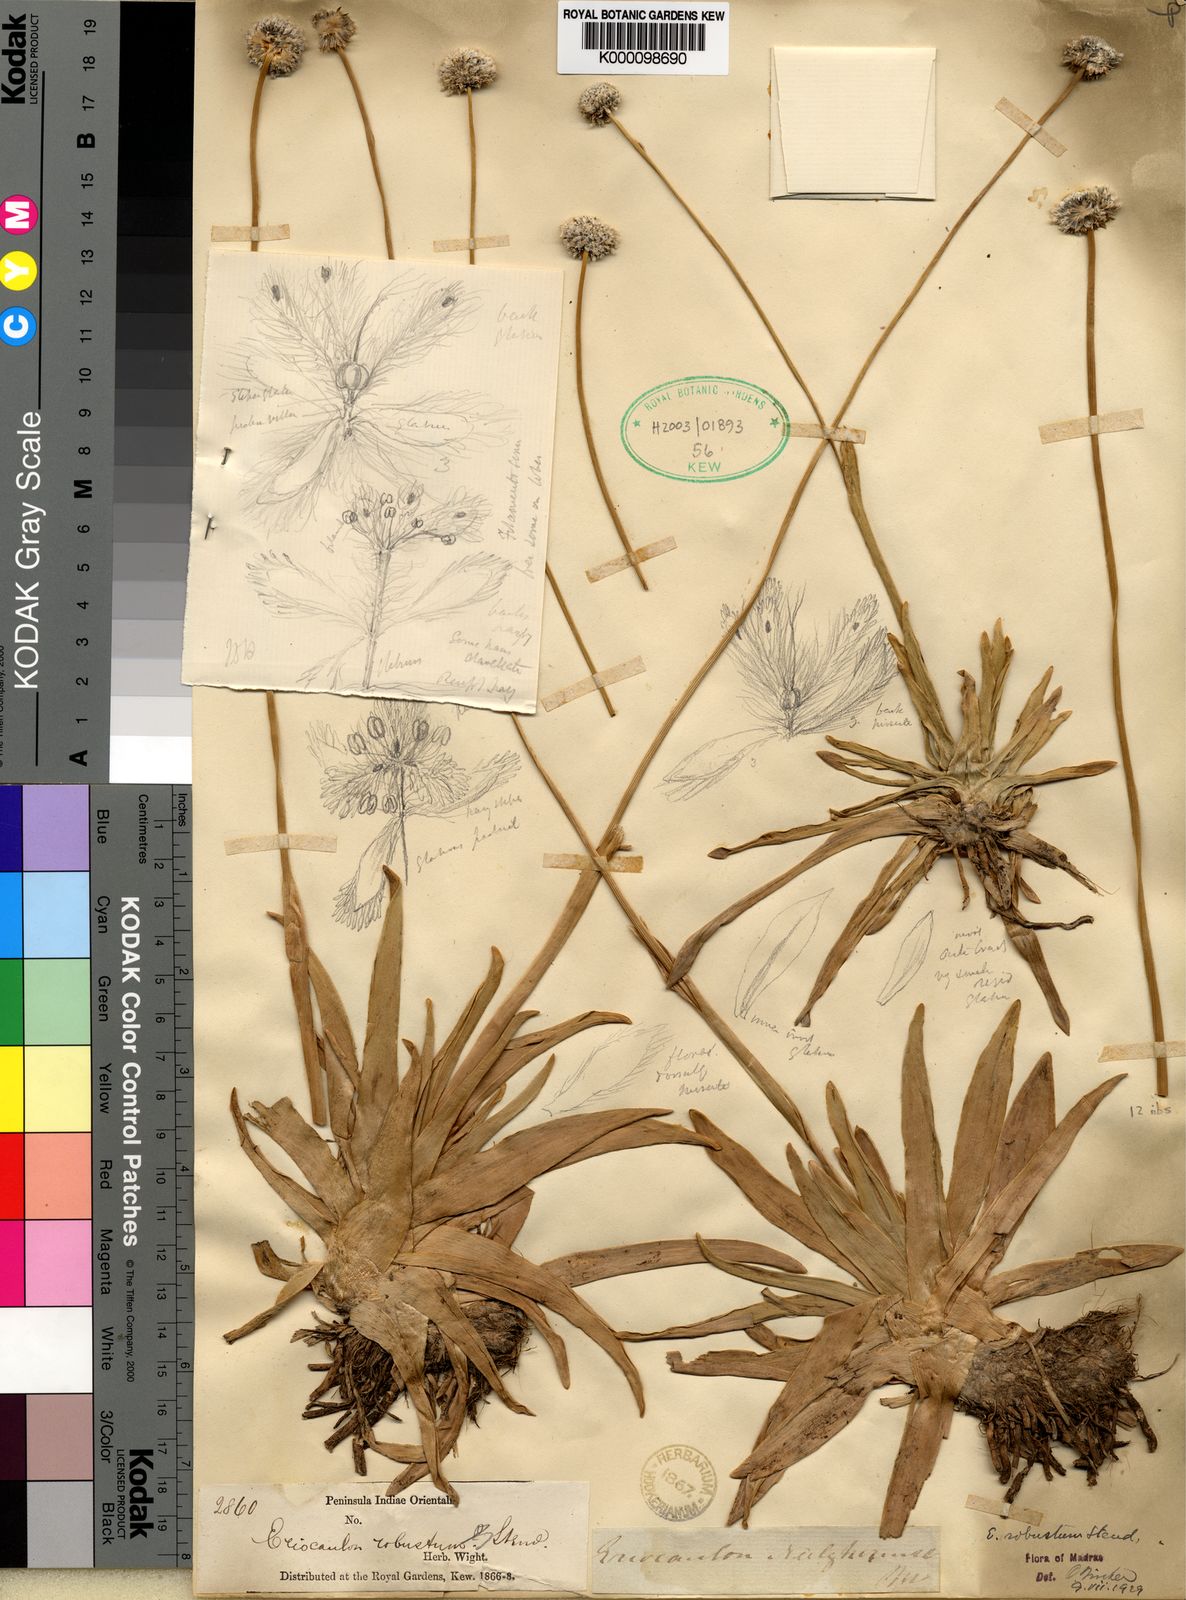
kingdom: Plantae
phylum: Tracheophyta
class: Liliopsida
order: Poales
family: Eriocaulaceae
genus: Eriocaulon
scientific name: Eriocaulon robustum
